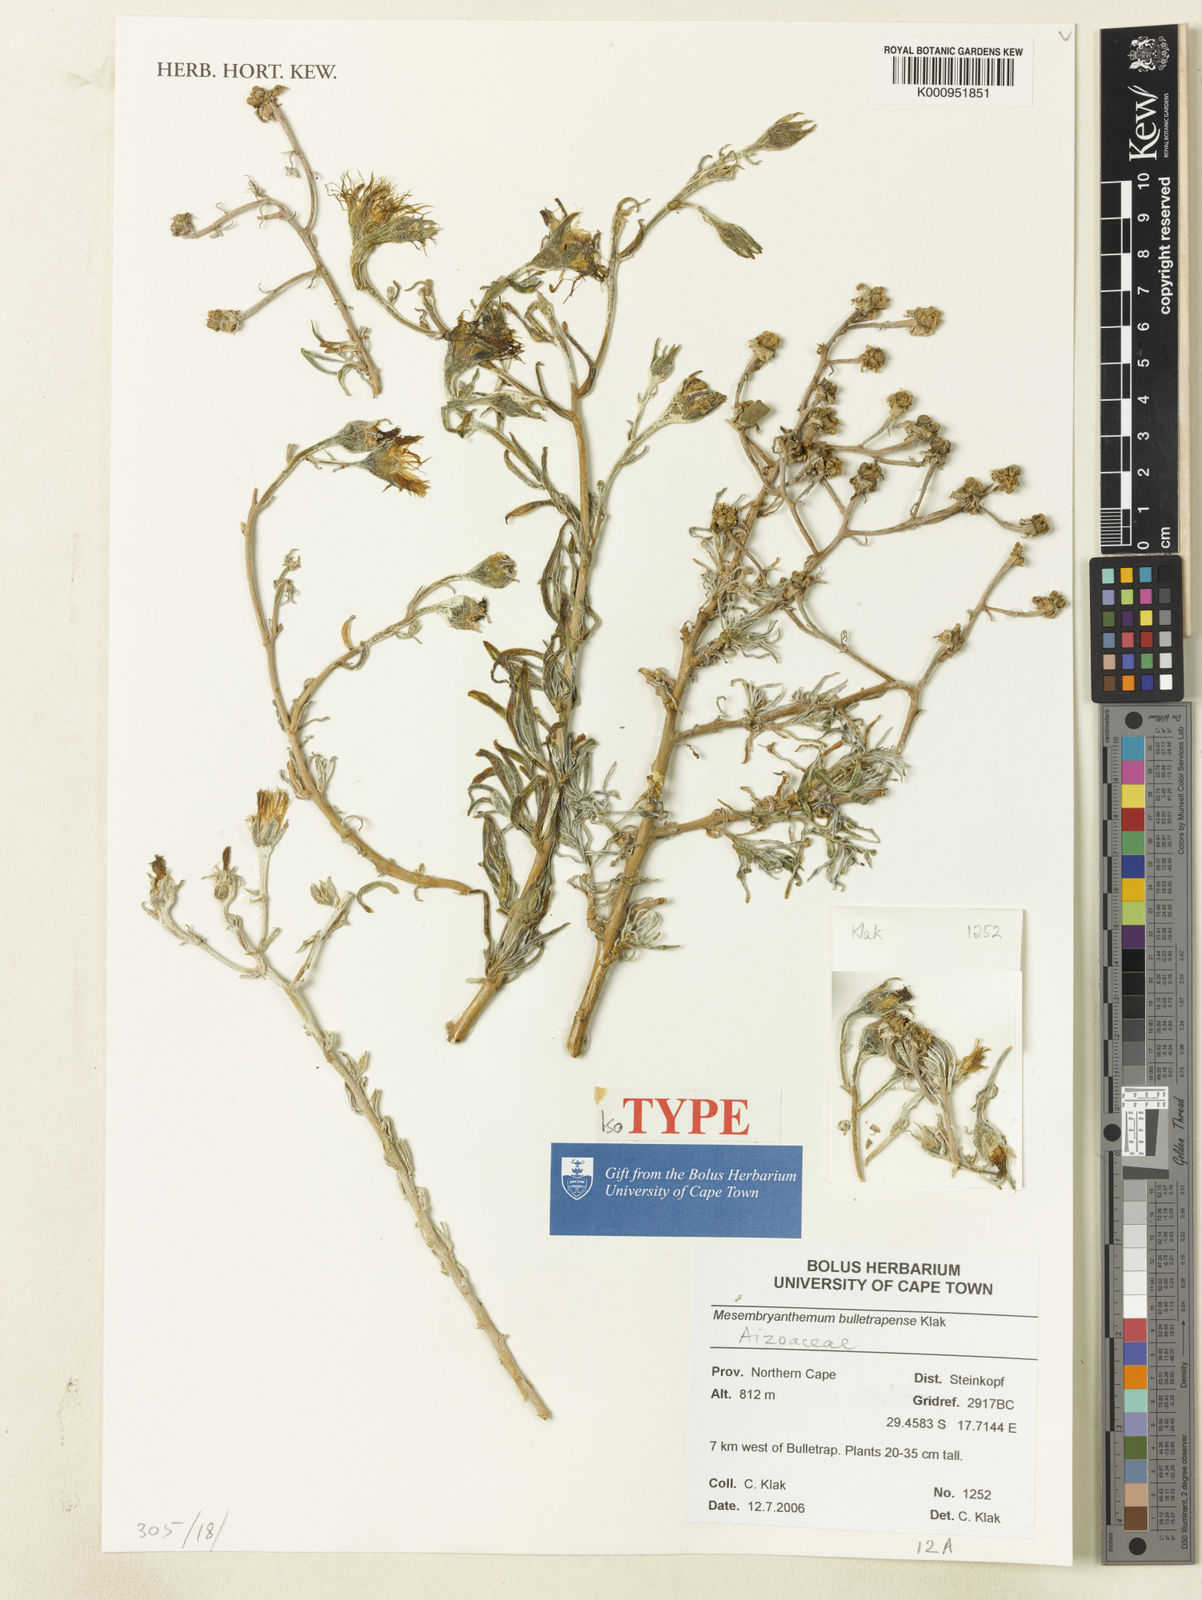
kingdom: Plantae
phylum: Tracheophyta
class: Magnoliopsida
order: Caryophyllales
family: Aizoaceae
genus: Mesembryanthemum
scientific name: Mesembryanthemum bulletrapense
